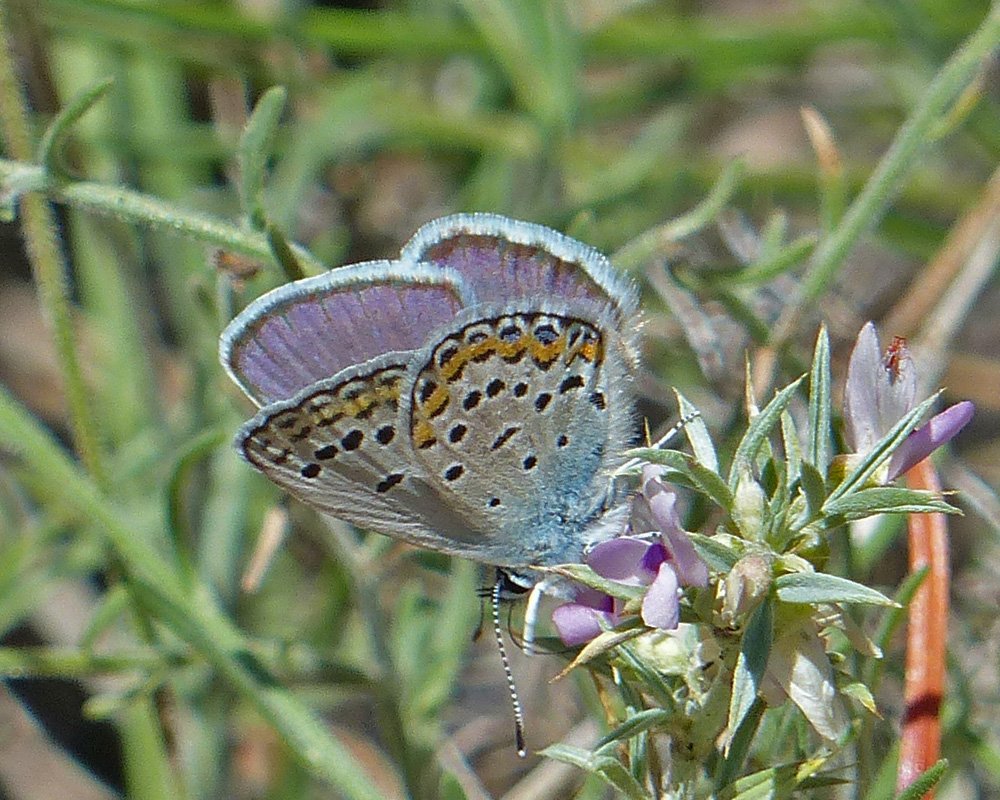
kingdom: Animalia
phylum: Arthropoda
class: Insecta
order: Lepidoptera
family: Lycaenidae
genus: Lycaeides
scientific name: Lycaeides melissa
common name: Melissa Blue
